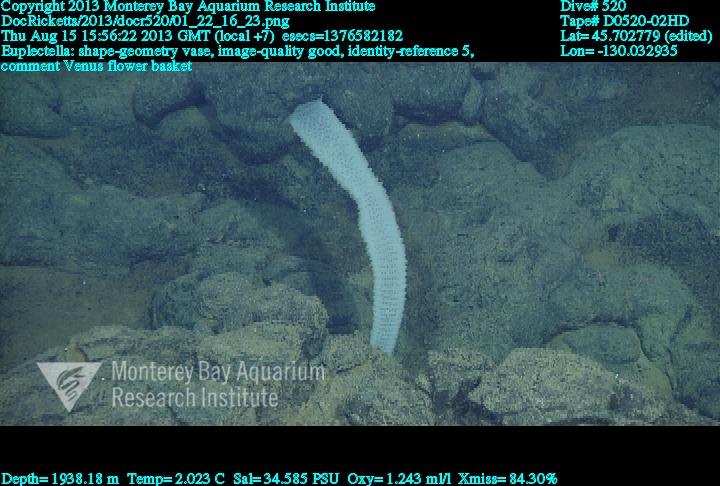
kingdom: Animalia
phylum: Porifera
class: Hexactinellida
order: Lyssacinosida
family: Euplectellidae
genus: Euplectella
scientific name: Euplectella
